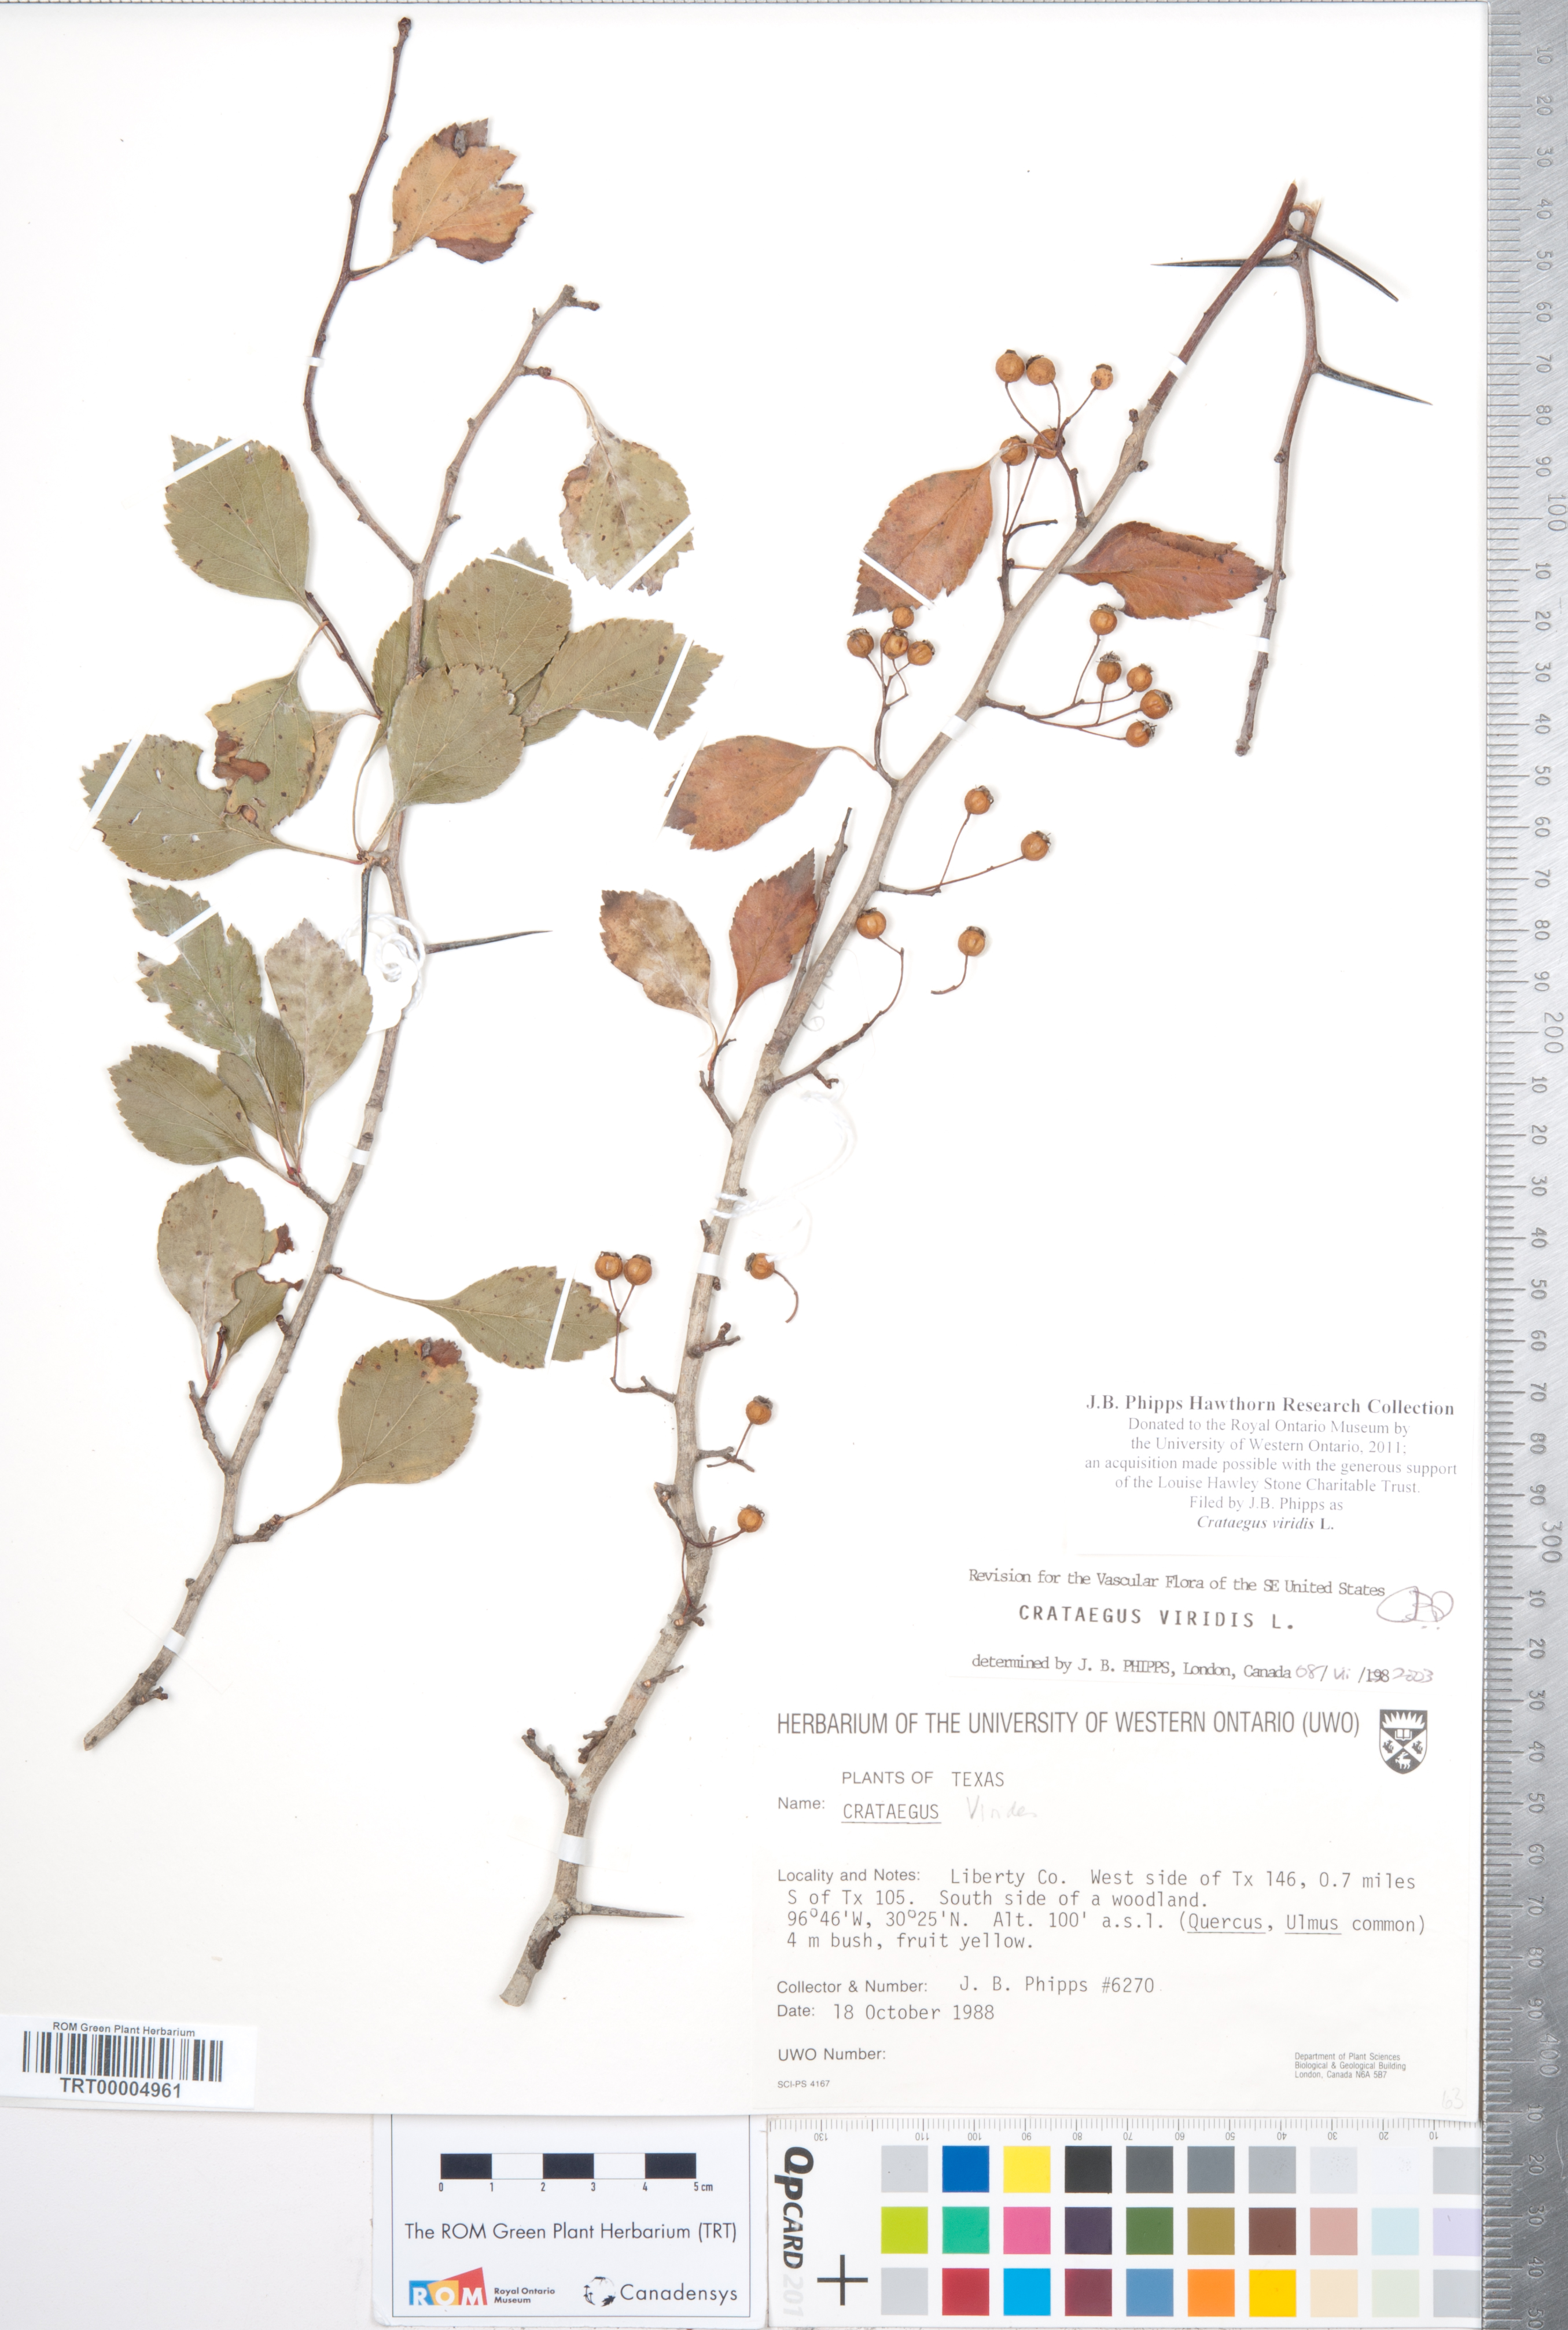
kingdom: Plantae
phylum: Tracheophyta
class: Magnoliopsida
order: Rosales
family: Rosaceae
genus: Crataegus
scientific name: Crataegus viridis
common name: Southernthorn
